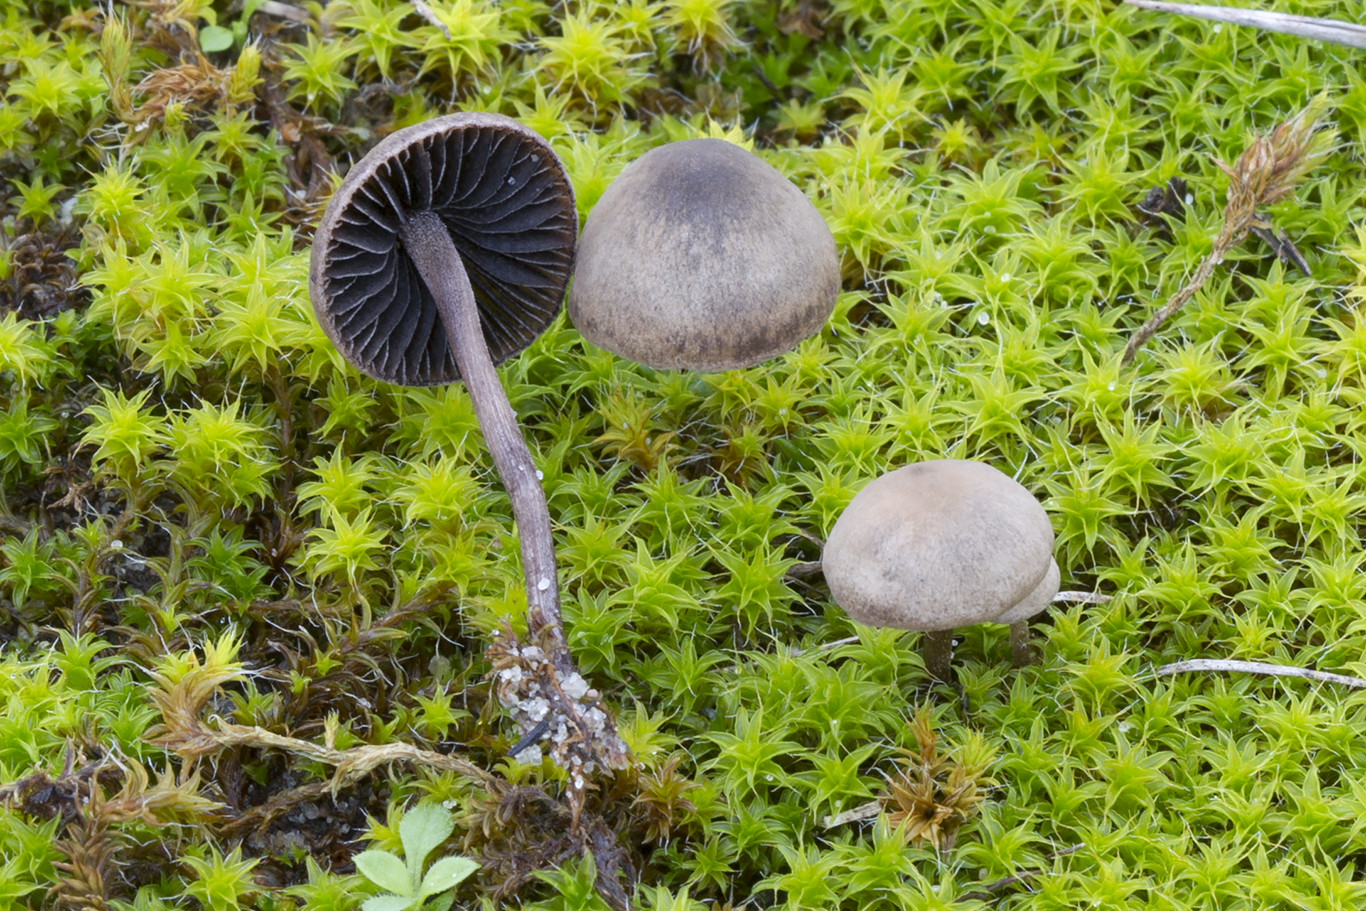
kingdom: Fungi
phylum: Basidiomycota
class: Agaricomycetes
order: Agaricales
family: Bolbitiaceae
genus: Panaeolus
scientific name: Panaeolus fimicola
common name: tidlig glanshat
